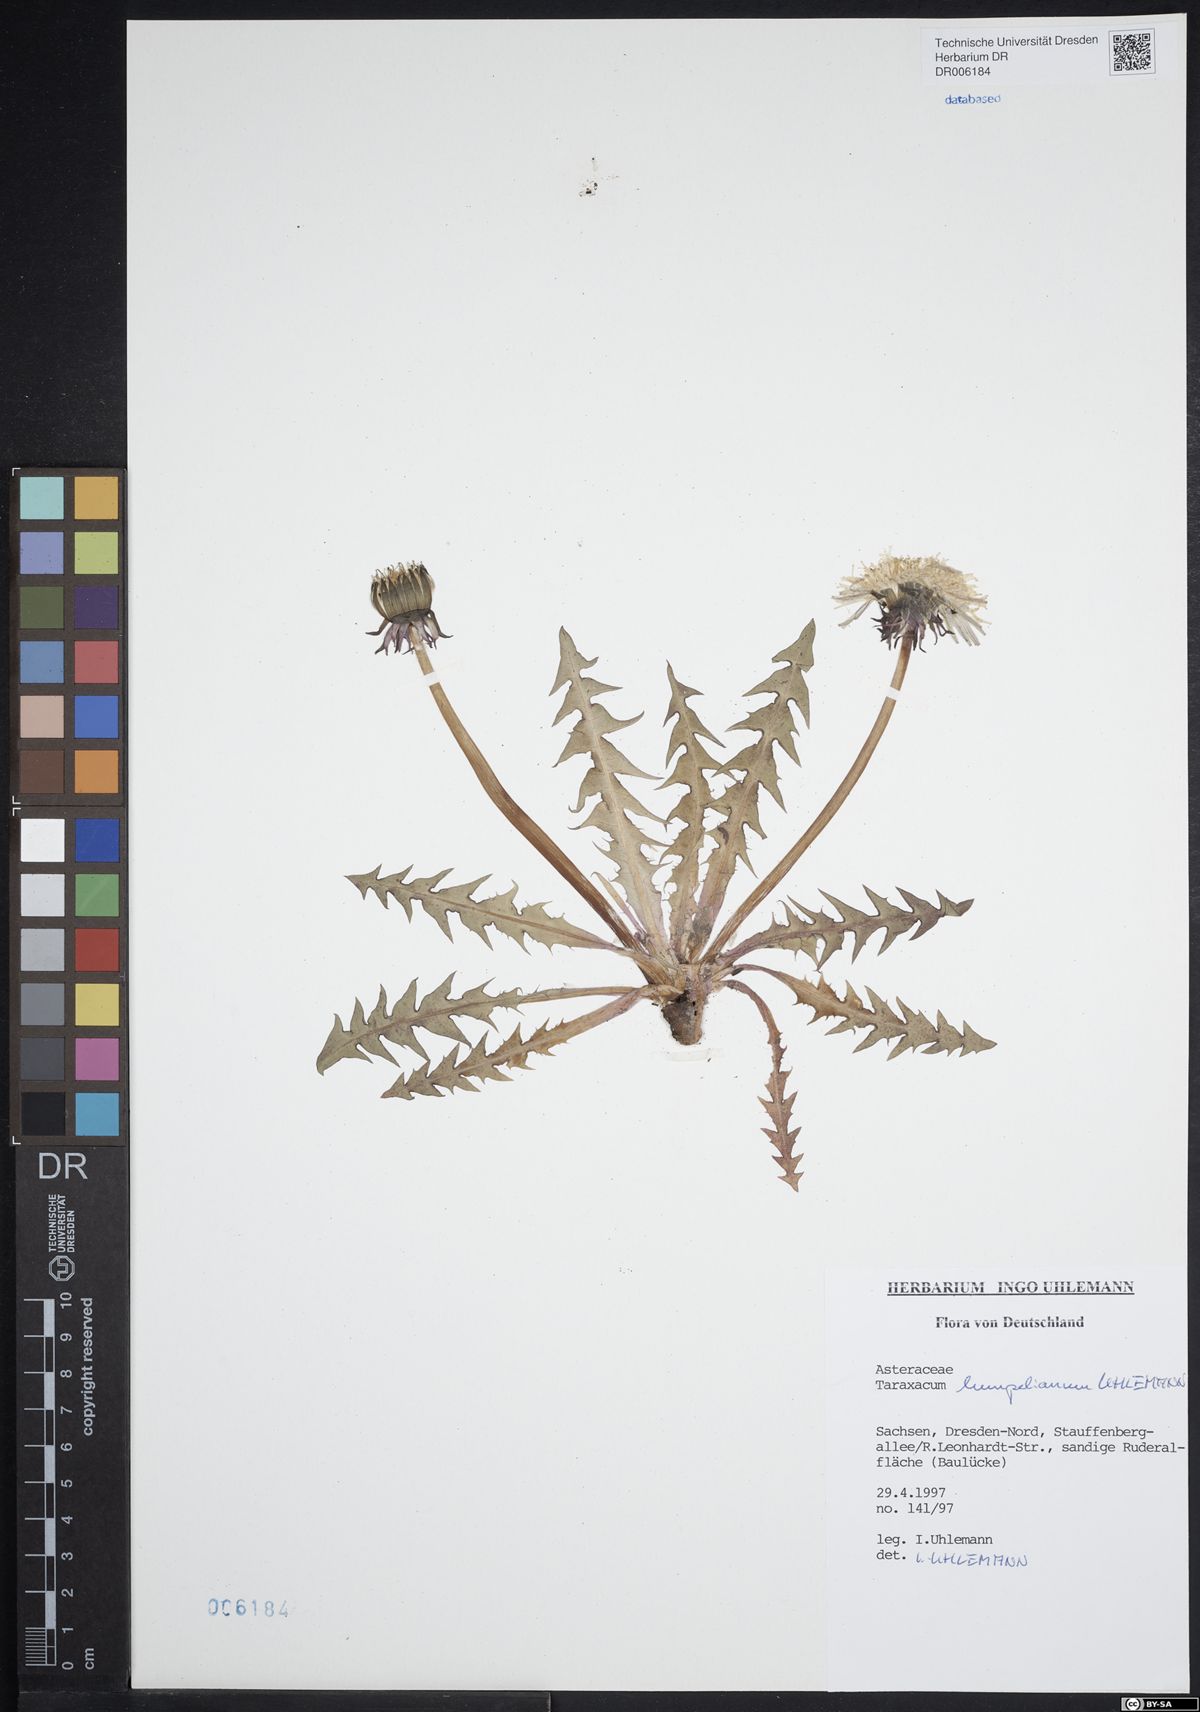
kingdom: Plantae
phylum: Tracheophyta
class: Magnoliopsida
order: Asterales
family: Asteraceae
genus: Taraxacum
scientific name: Taraxacum hempelianum
